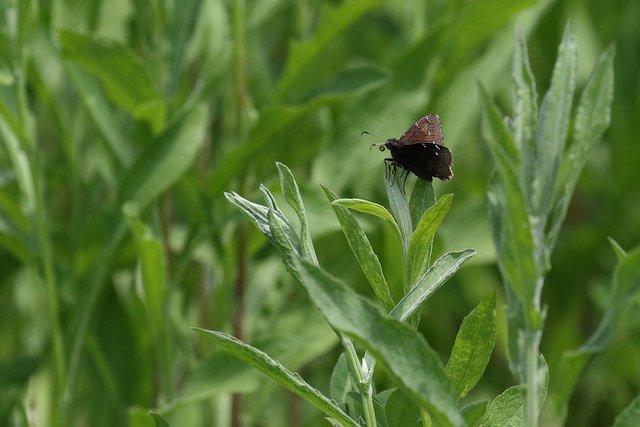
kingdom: Animalia
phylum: Arthropoda
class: Insecta
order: Lepidoptera
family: Hesperiidae
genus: Autochton
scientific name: Autochton
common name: Northern Cloudywing
